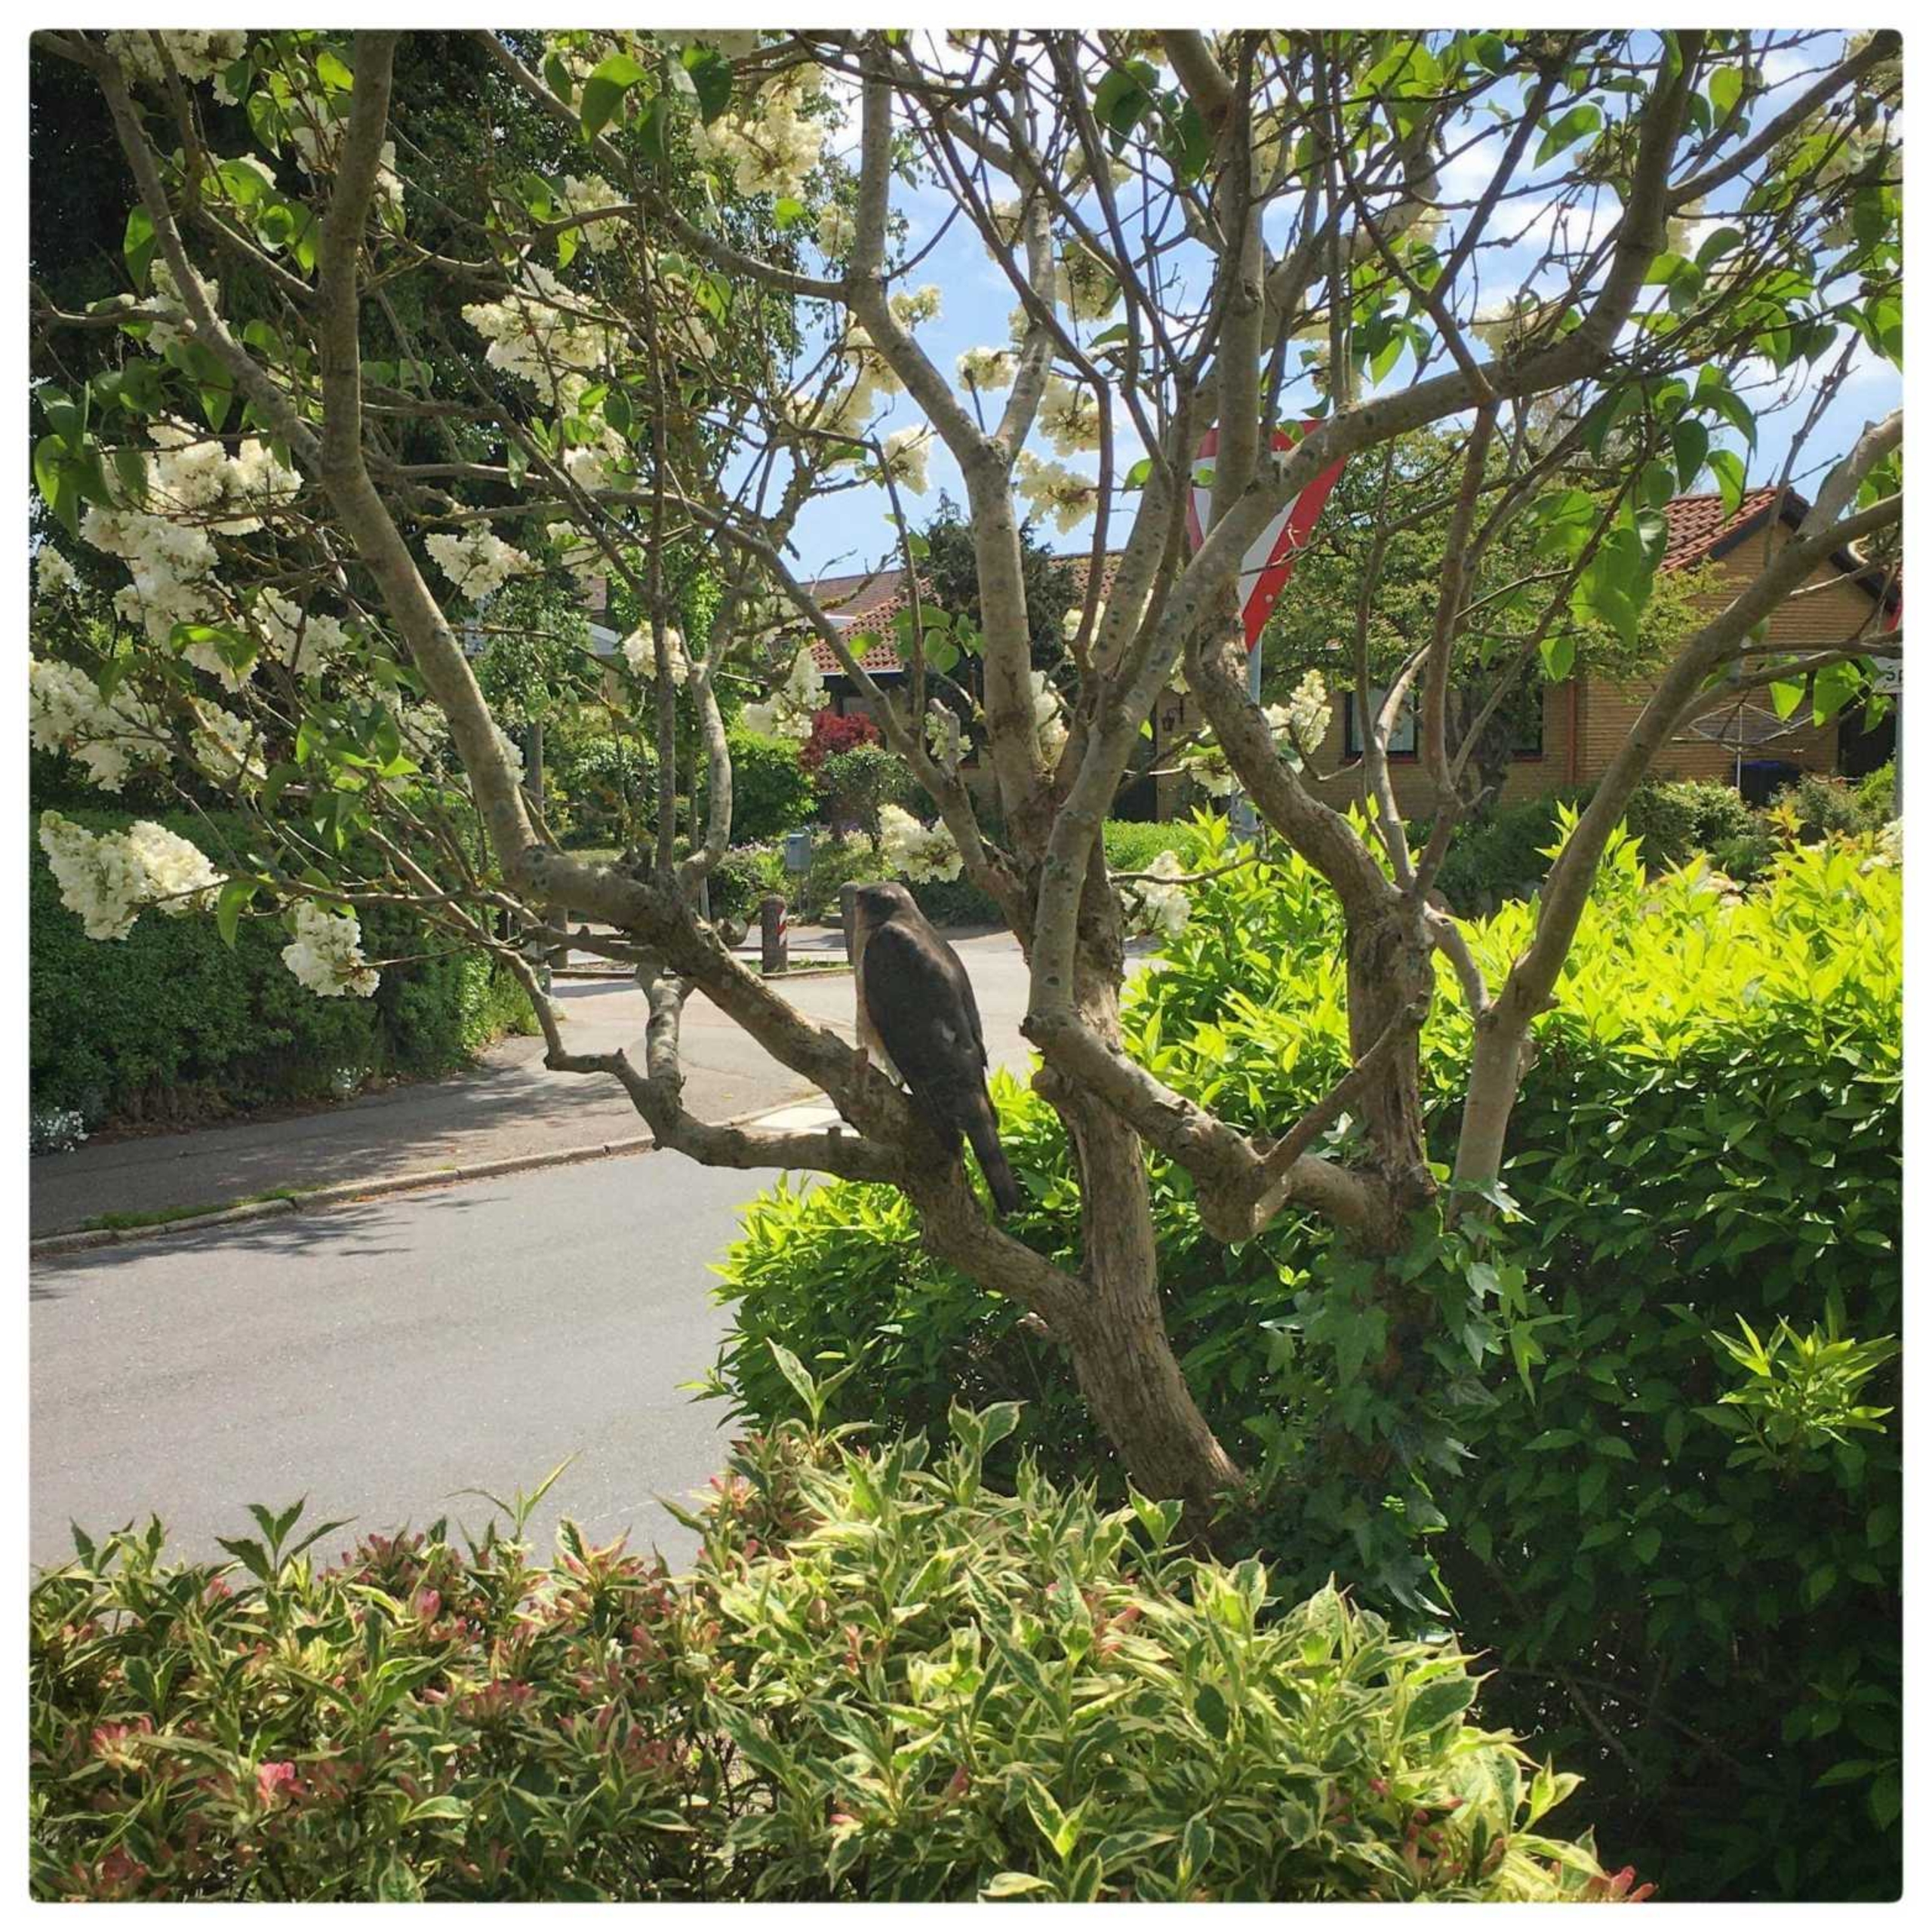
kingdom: Animalia
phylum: Chordata
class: Aves
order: Accipitriformes
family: Accipitridae
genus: Accipiter
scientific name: Accipiter nisus
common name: Spurvehøg
